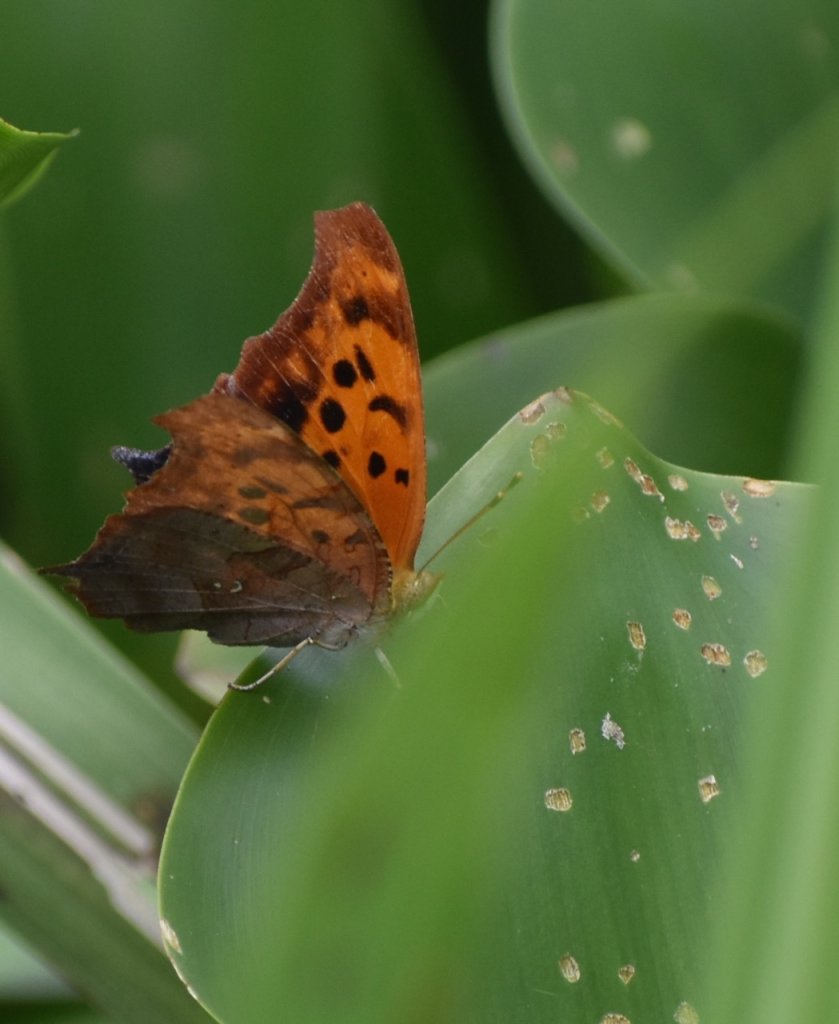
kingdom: Animalia
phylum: Arthropoda
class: Insecta
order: Lepidoptera
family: Nymphalidae
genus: Polygonia
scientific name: Polygonia interrogationis
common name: Question Mark
